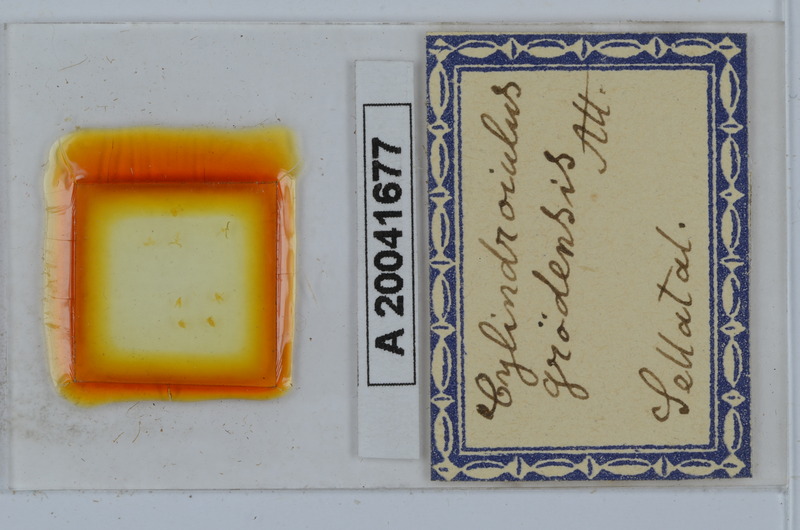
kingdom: Animalia
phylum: Arthropoda
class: Diplopoda
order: Julida
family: Julidae
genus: Allajulus
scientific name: Allajulus groedensis
